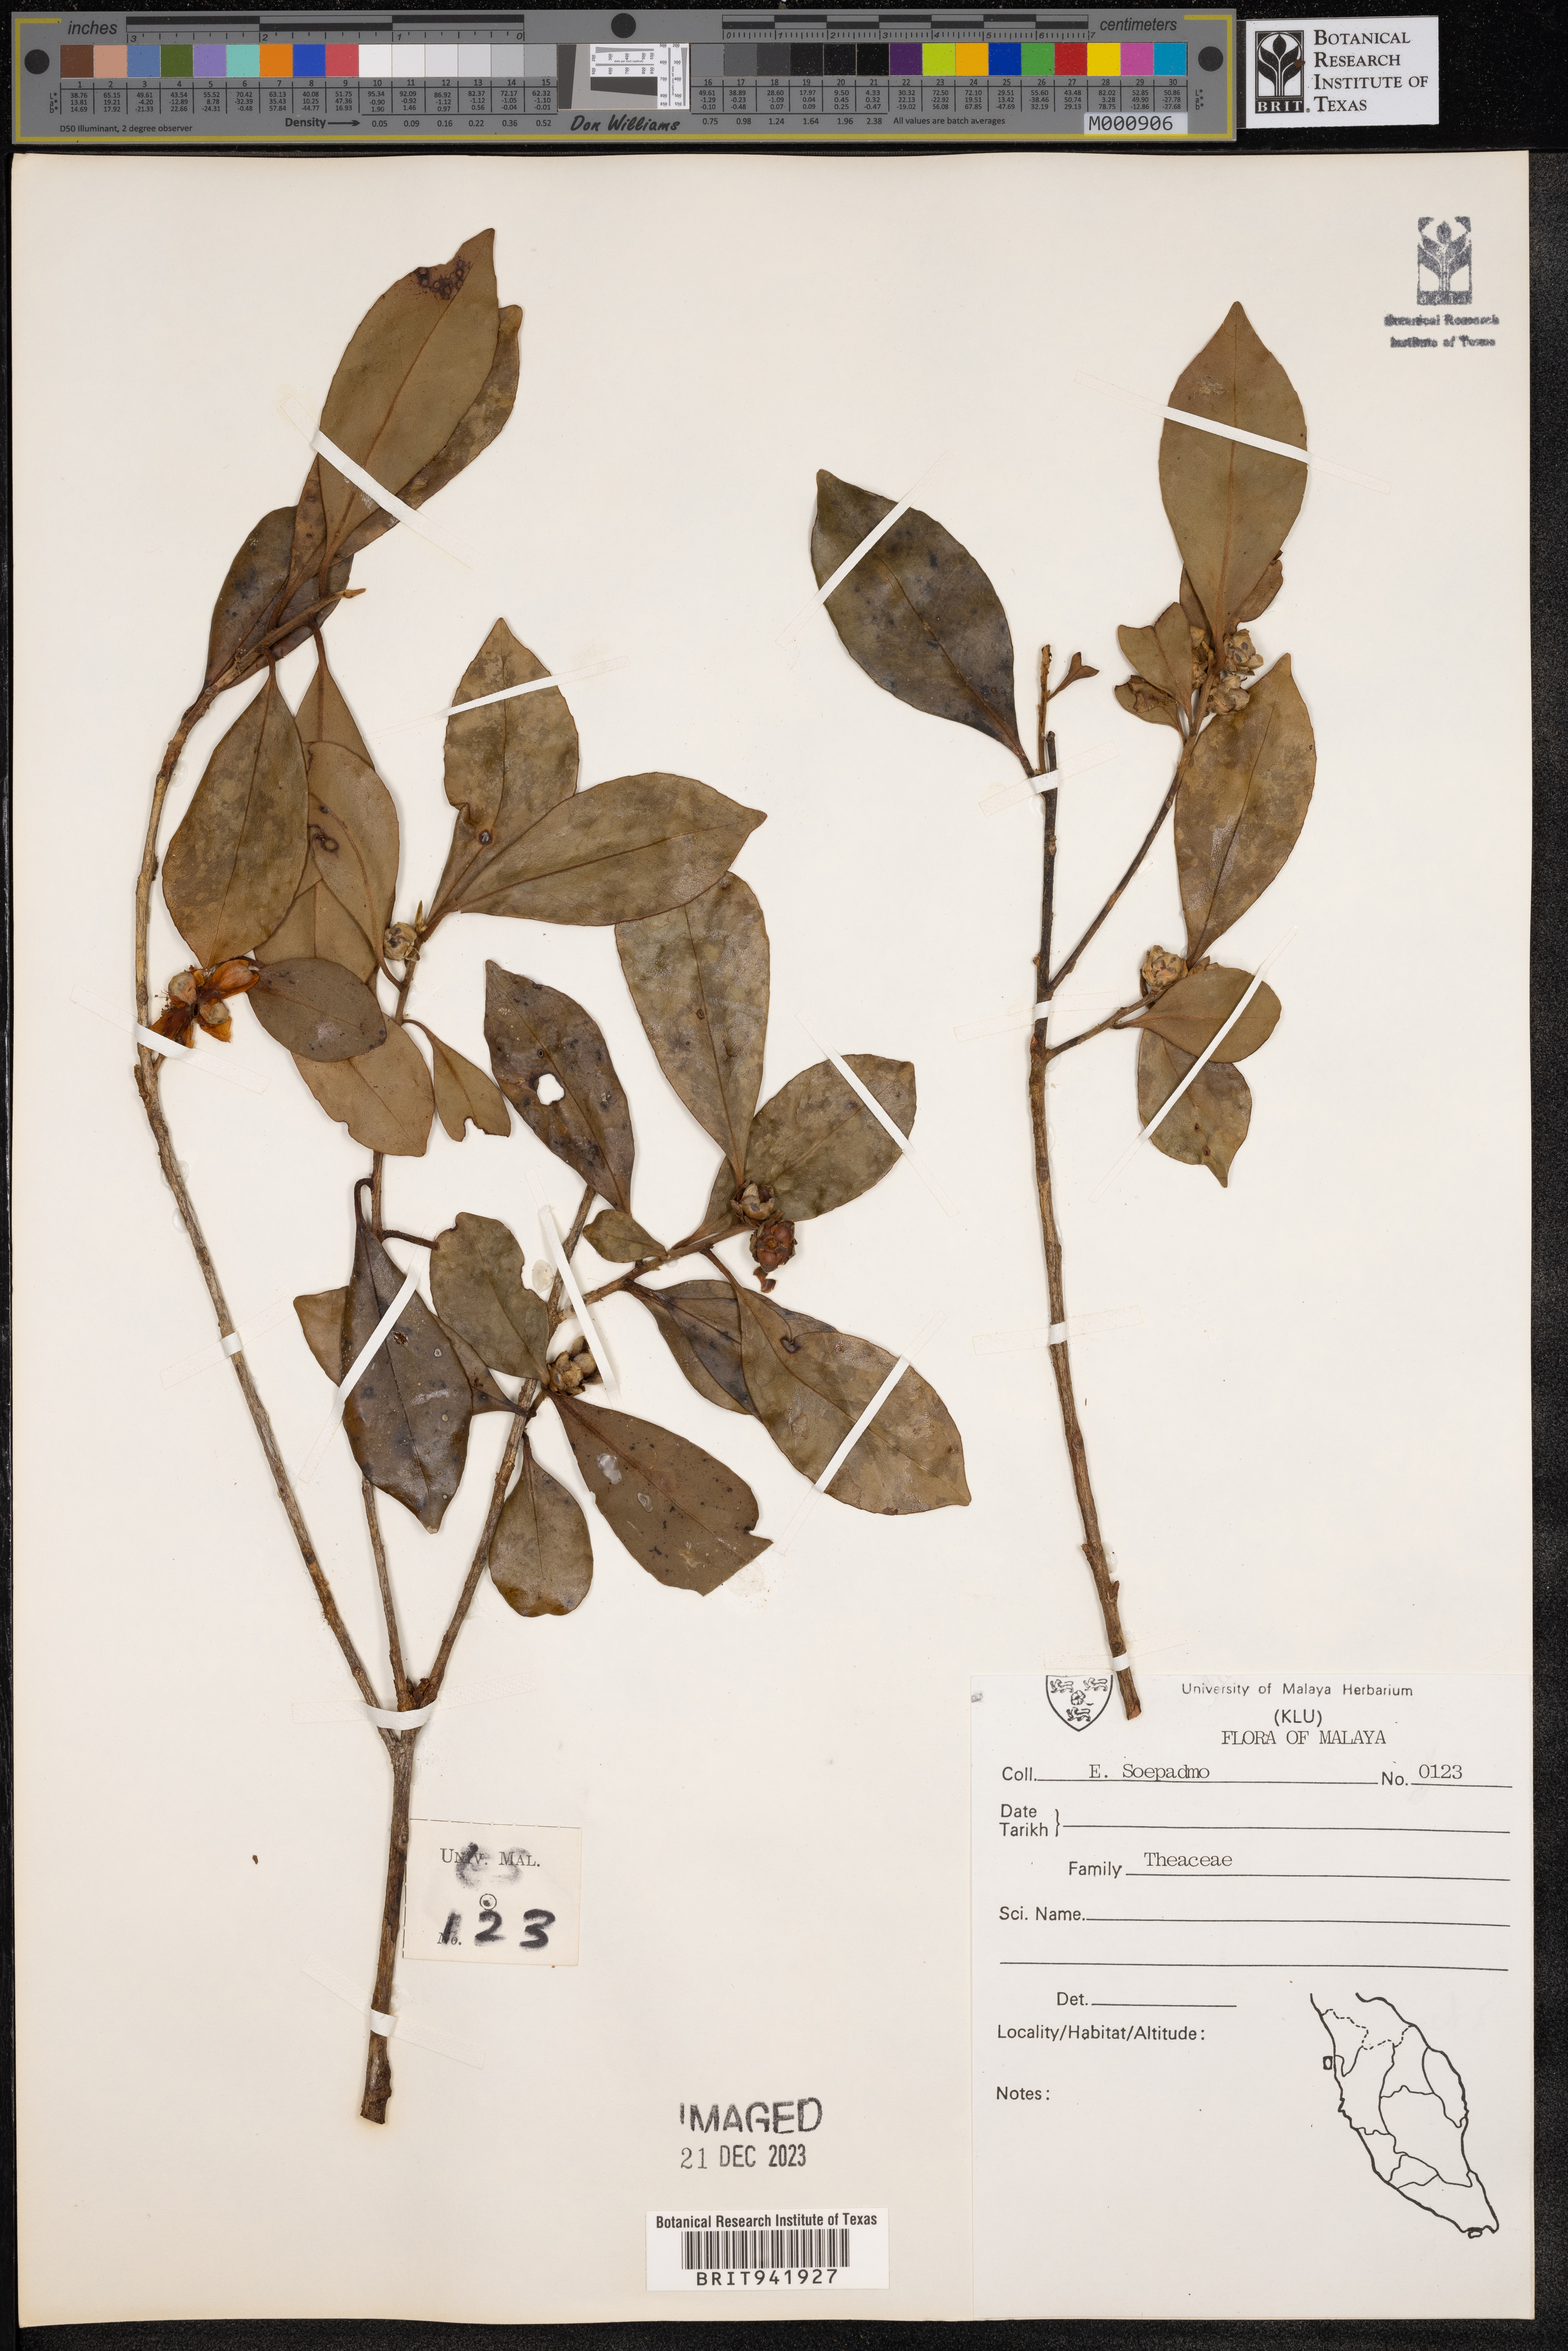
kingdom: Plantae
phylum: Tracheophyta
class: Magnoliopsida
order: Ericales
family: Theaceae
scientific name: Theaceae
